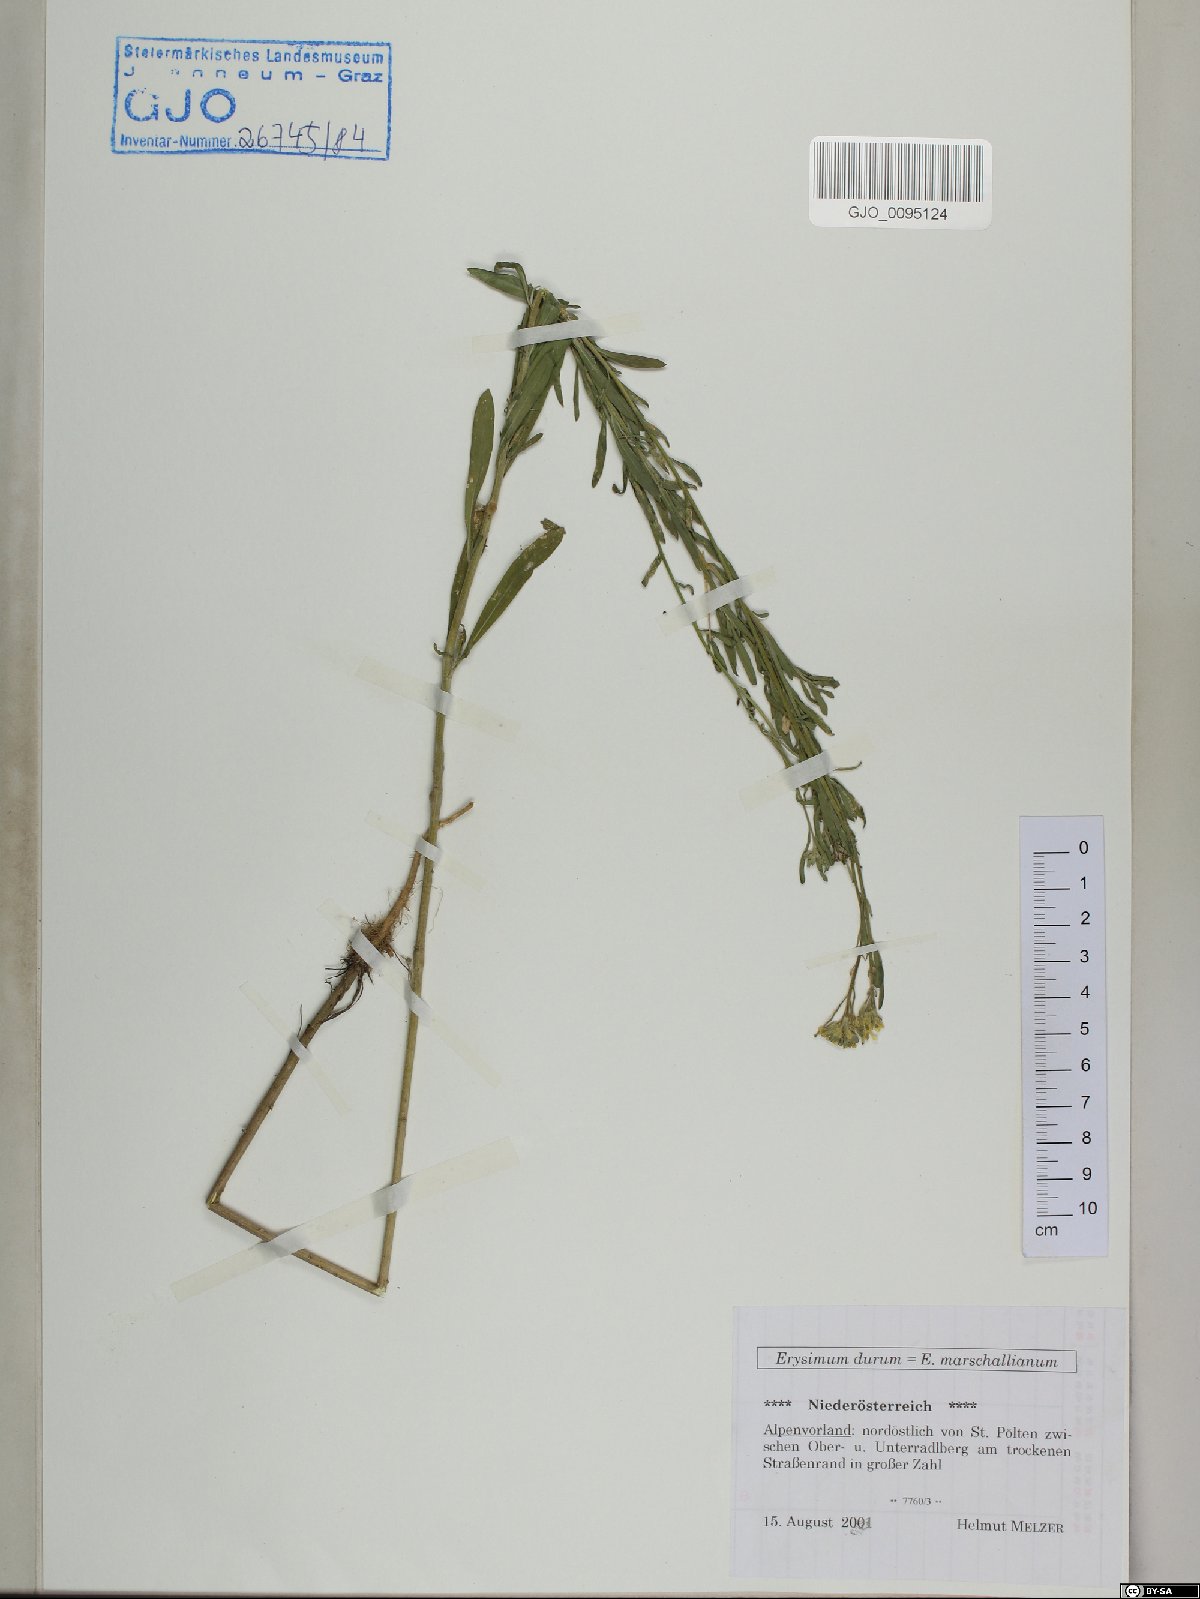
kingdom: Plantae
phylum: Tracheophyta
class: Magnoliopsida
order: Brassicales
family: Brassicaceae
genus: Erysimum
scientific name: Erysimum marschallianum
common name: Hard wallflower
